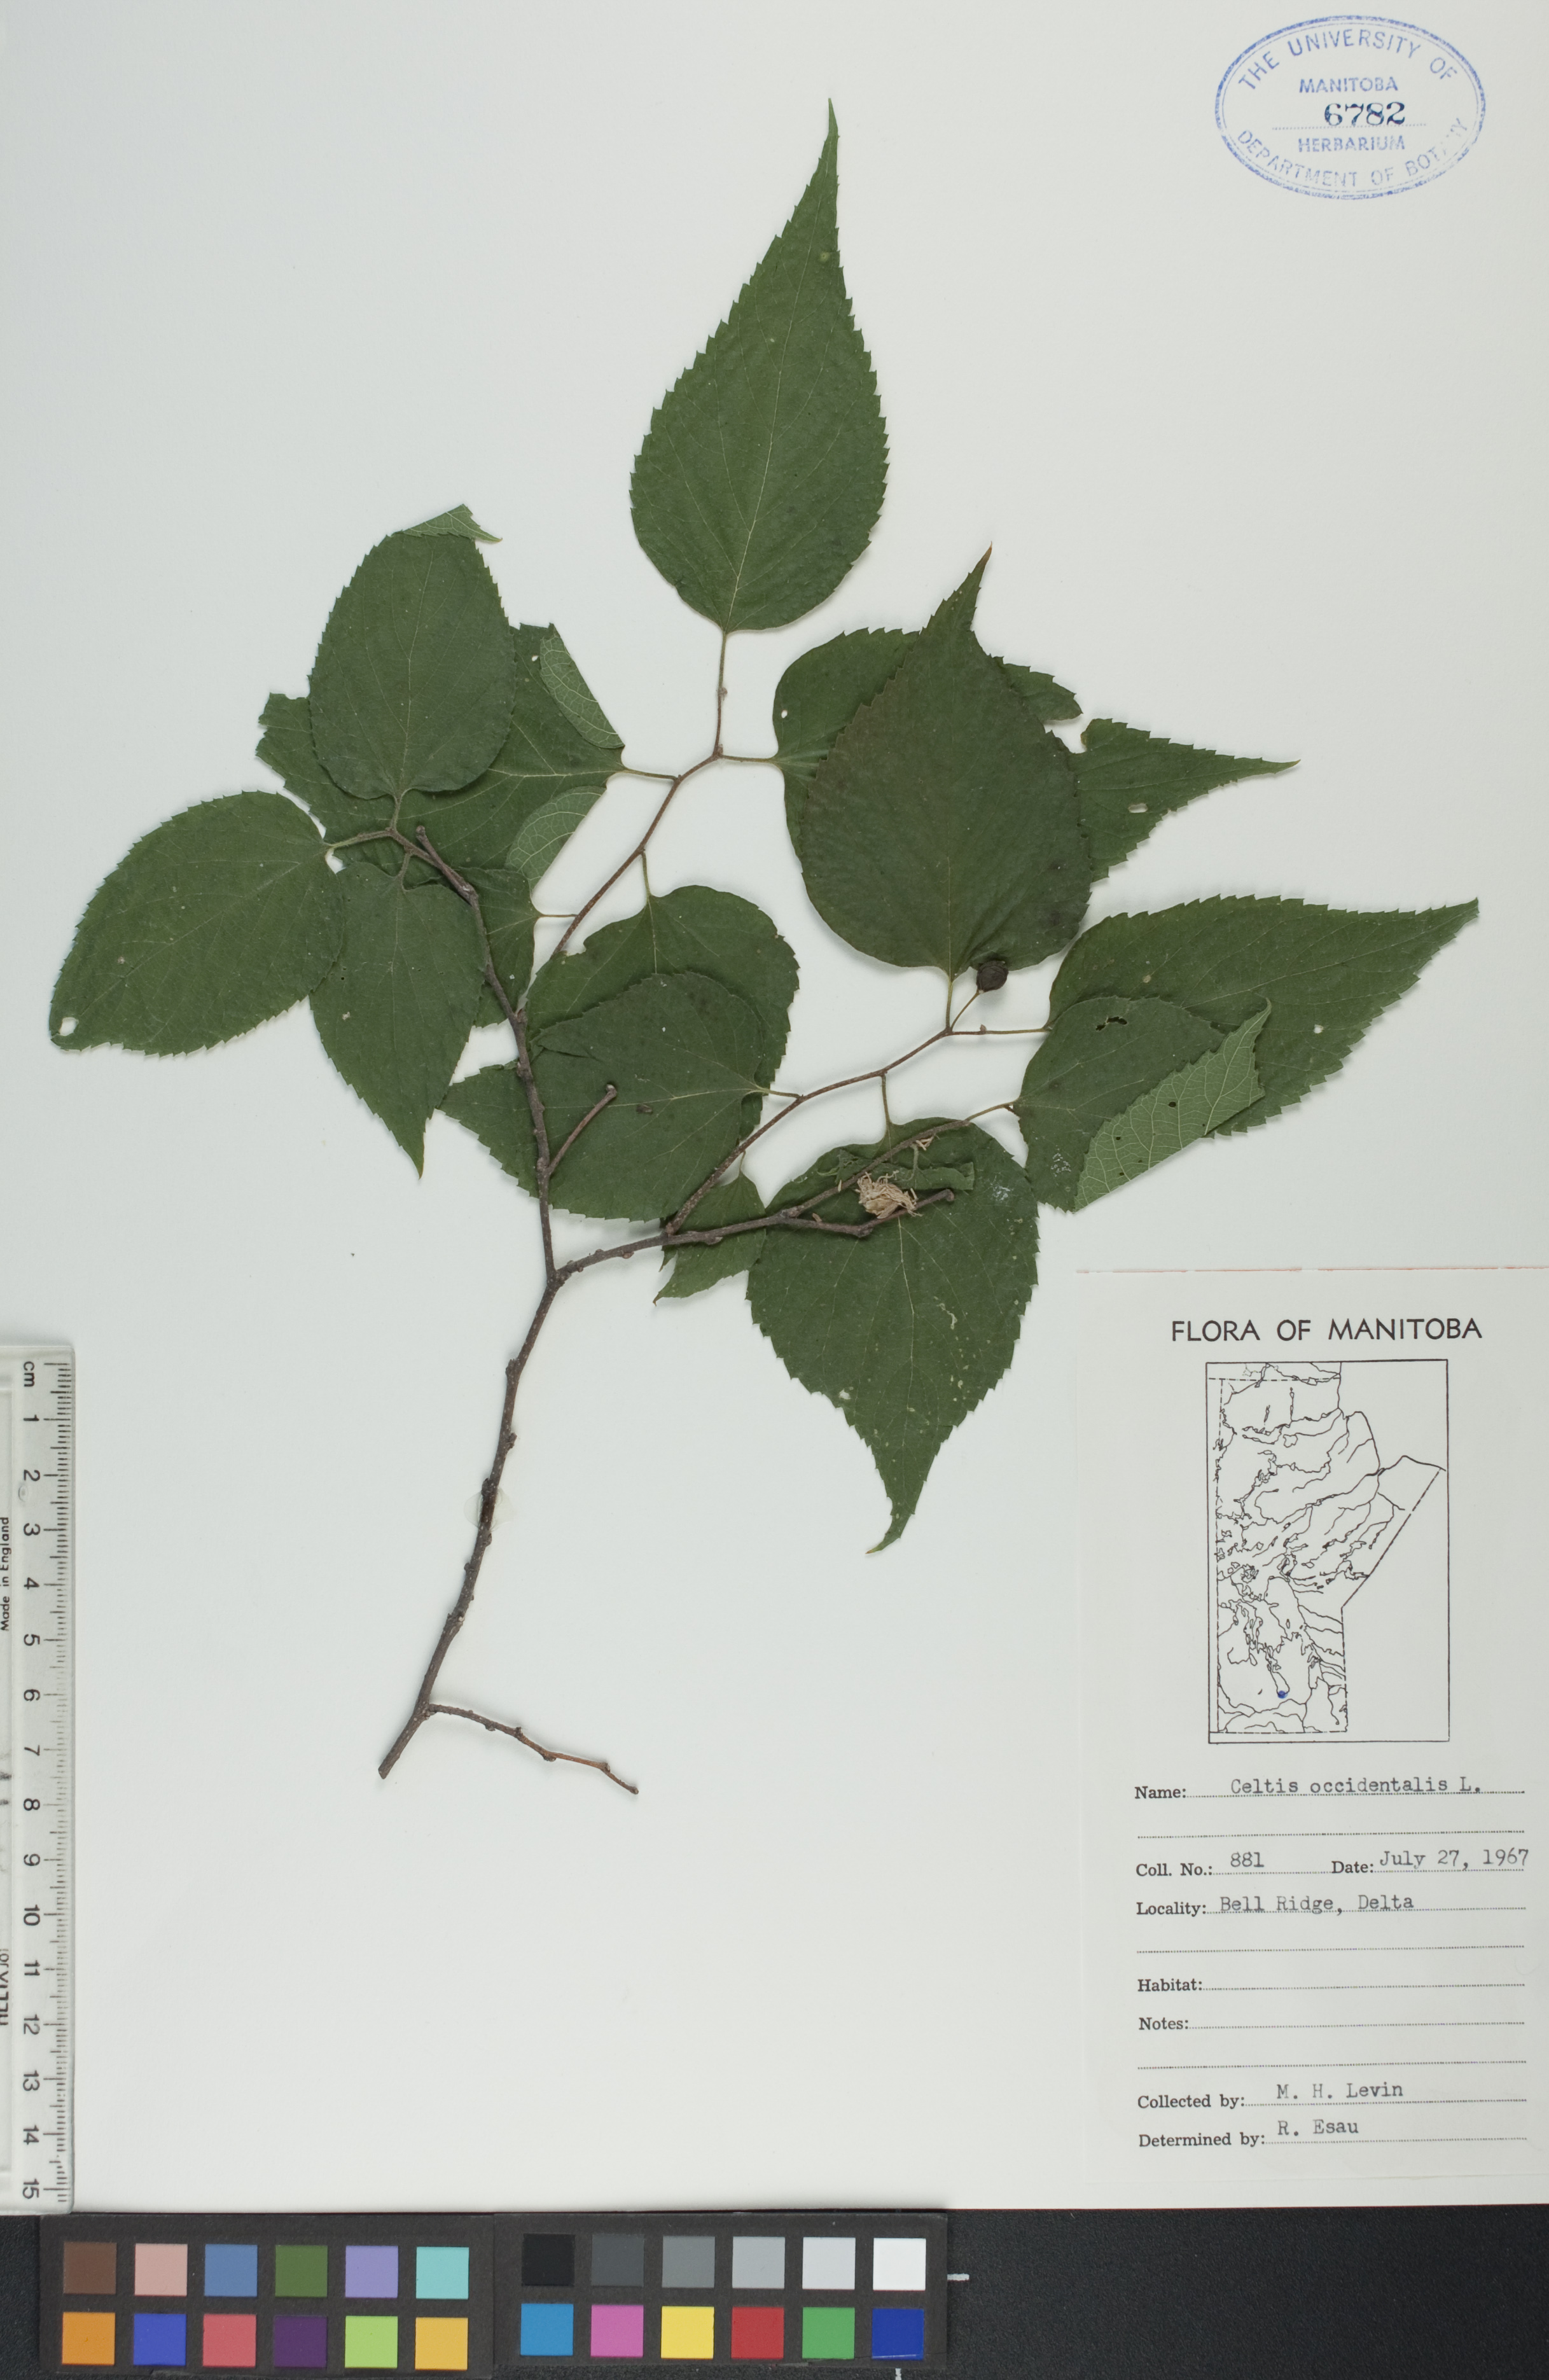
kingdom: Plantae
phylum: Tracheophyta
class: Magnoliopsida
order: Rosales
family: Cannabaceae
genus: Celtis
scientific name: Celtis occidentalis
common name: Common hackberry
